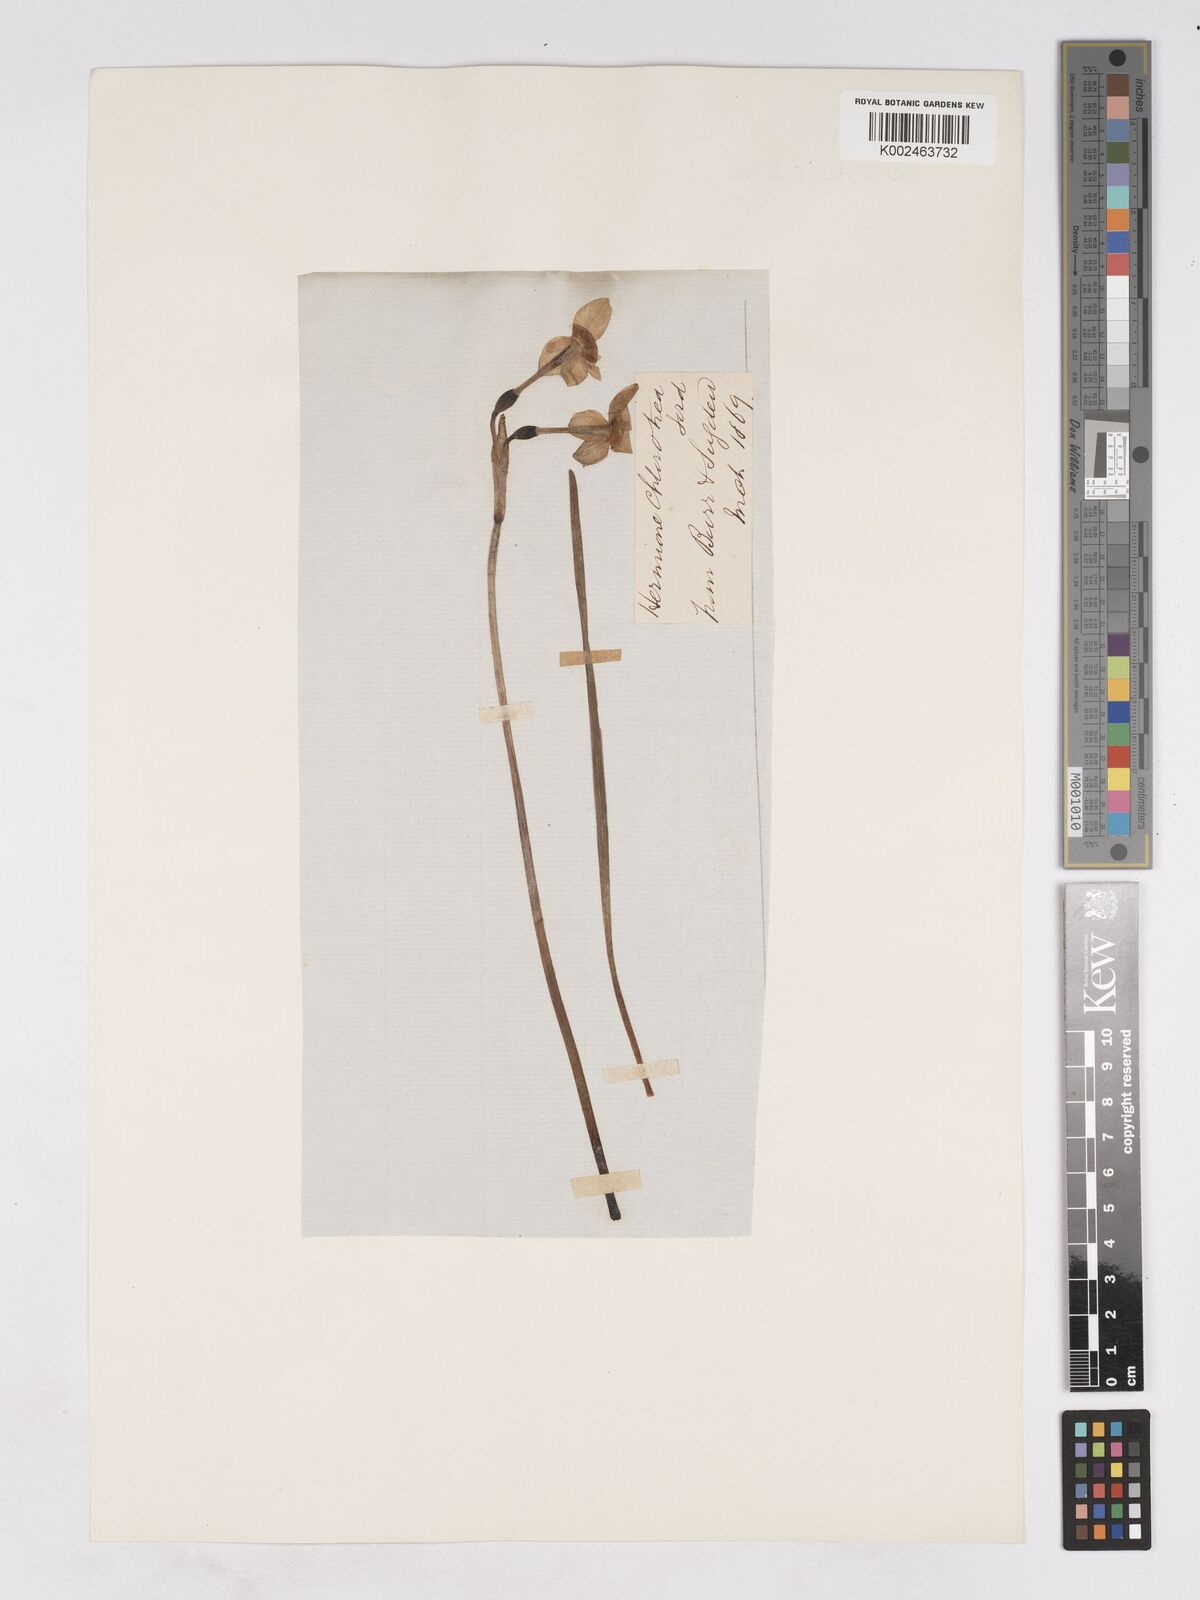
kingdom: Plantae
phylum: Tracheophyta
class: Liliopsida
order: Asparagales
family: Amaryllidaceae
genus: Narcissus
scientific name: Narcissus tazetta
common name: Bunch-flowered daffodil
